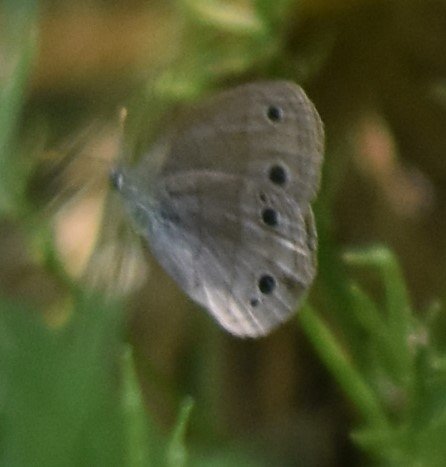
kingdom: Animalia
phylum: Arthropoda
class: Insecta
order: Lepidoptera
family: Nymphalidae
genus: Euptychia
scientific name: Euptychia cymela
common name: Little Wood Satyr
